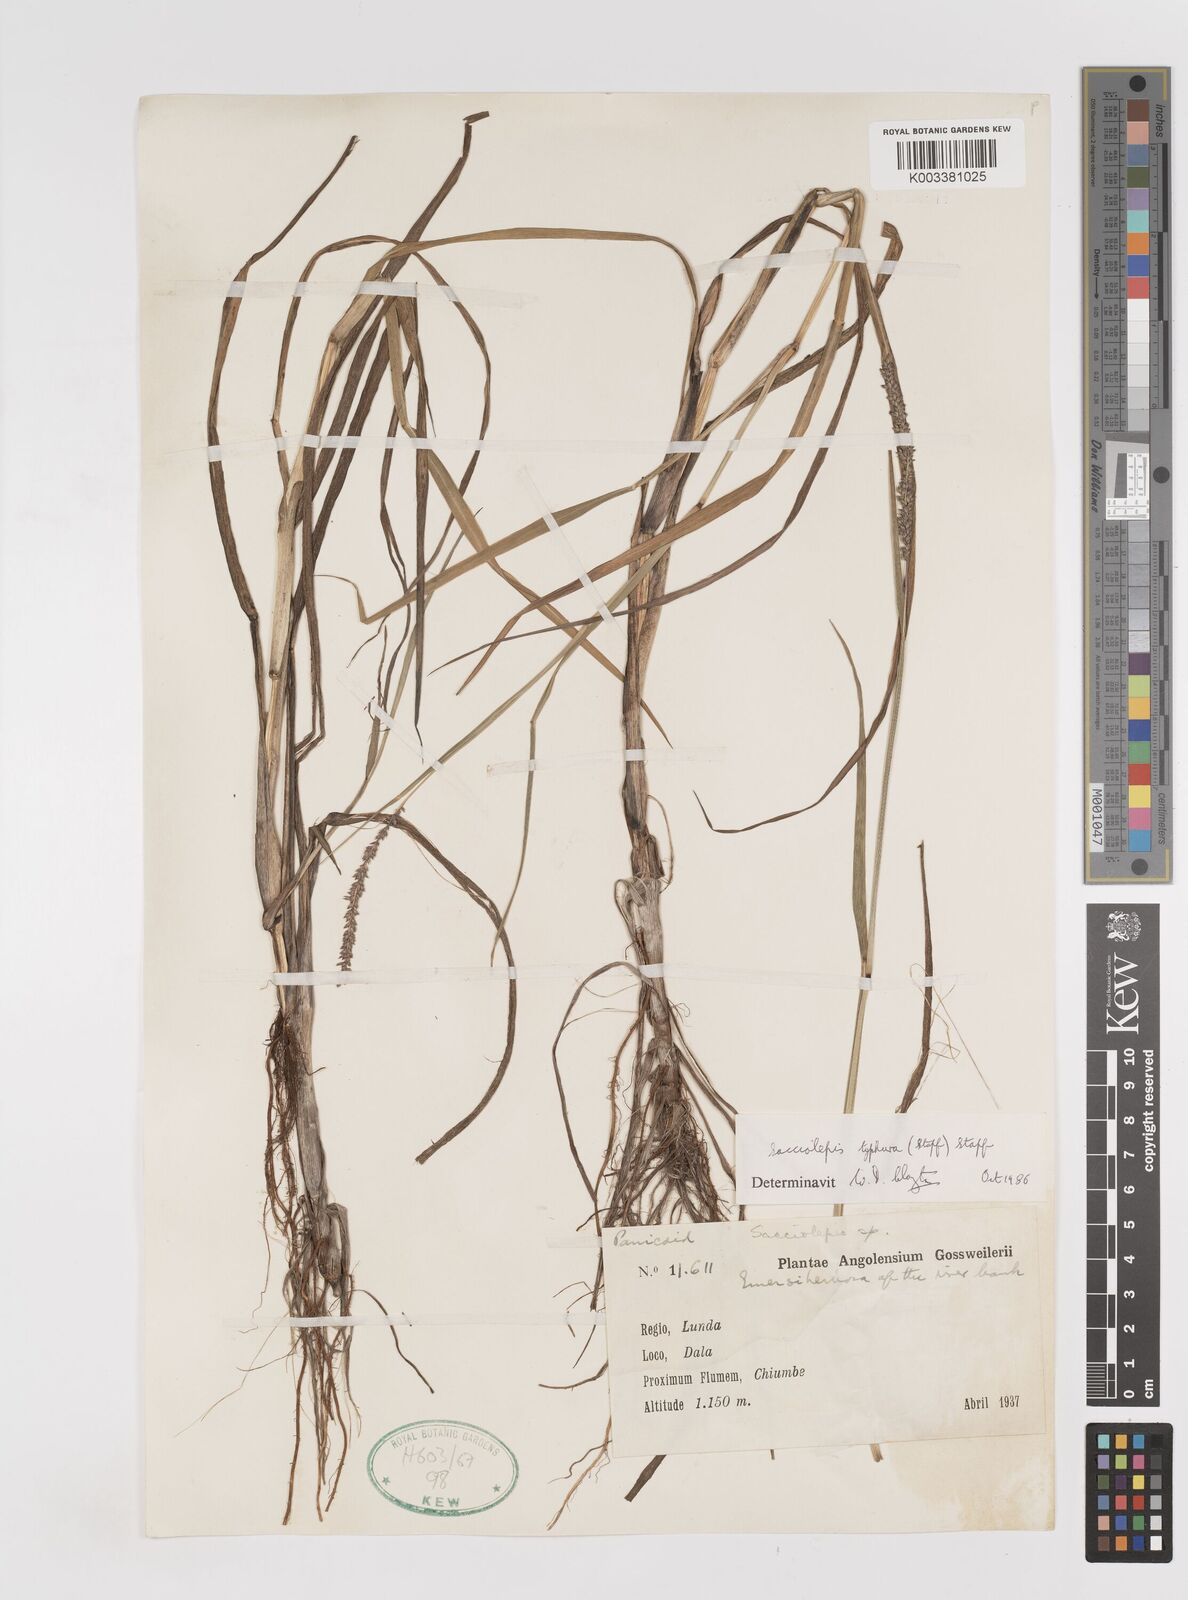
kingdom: Plantae
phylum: Tracheophyta
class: Liliopsida
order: Poales
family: Poaceae
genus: Sacciolepis
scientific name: Sacciolepis typhura
